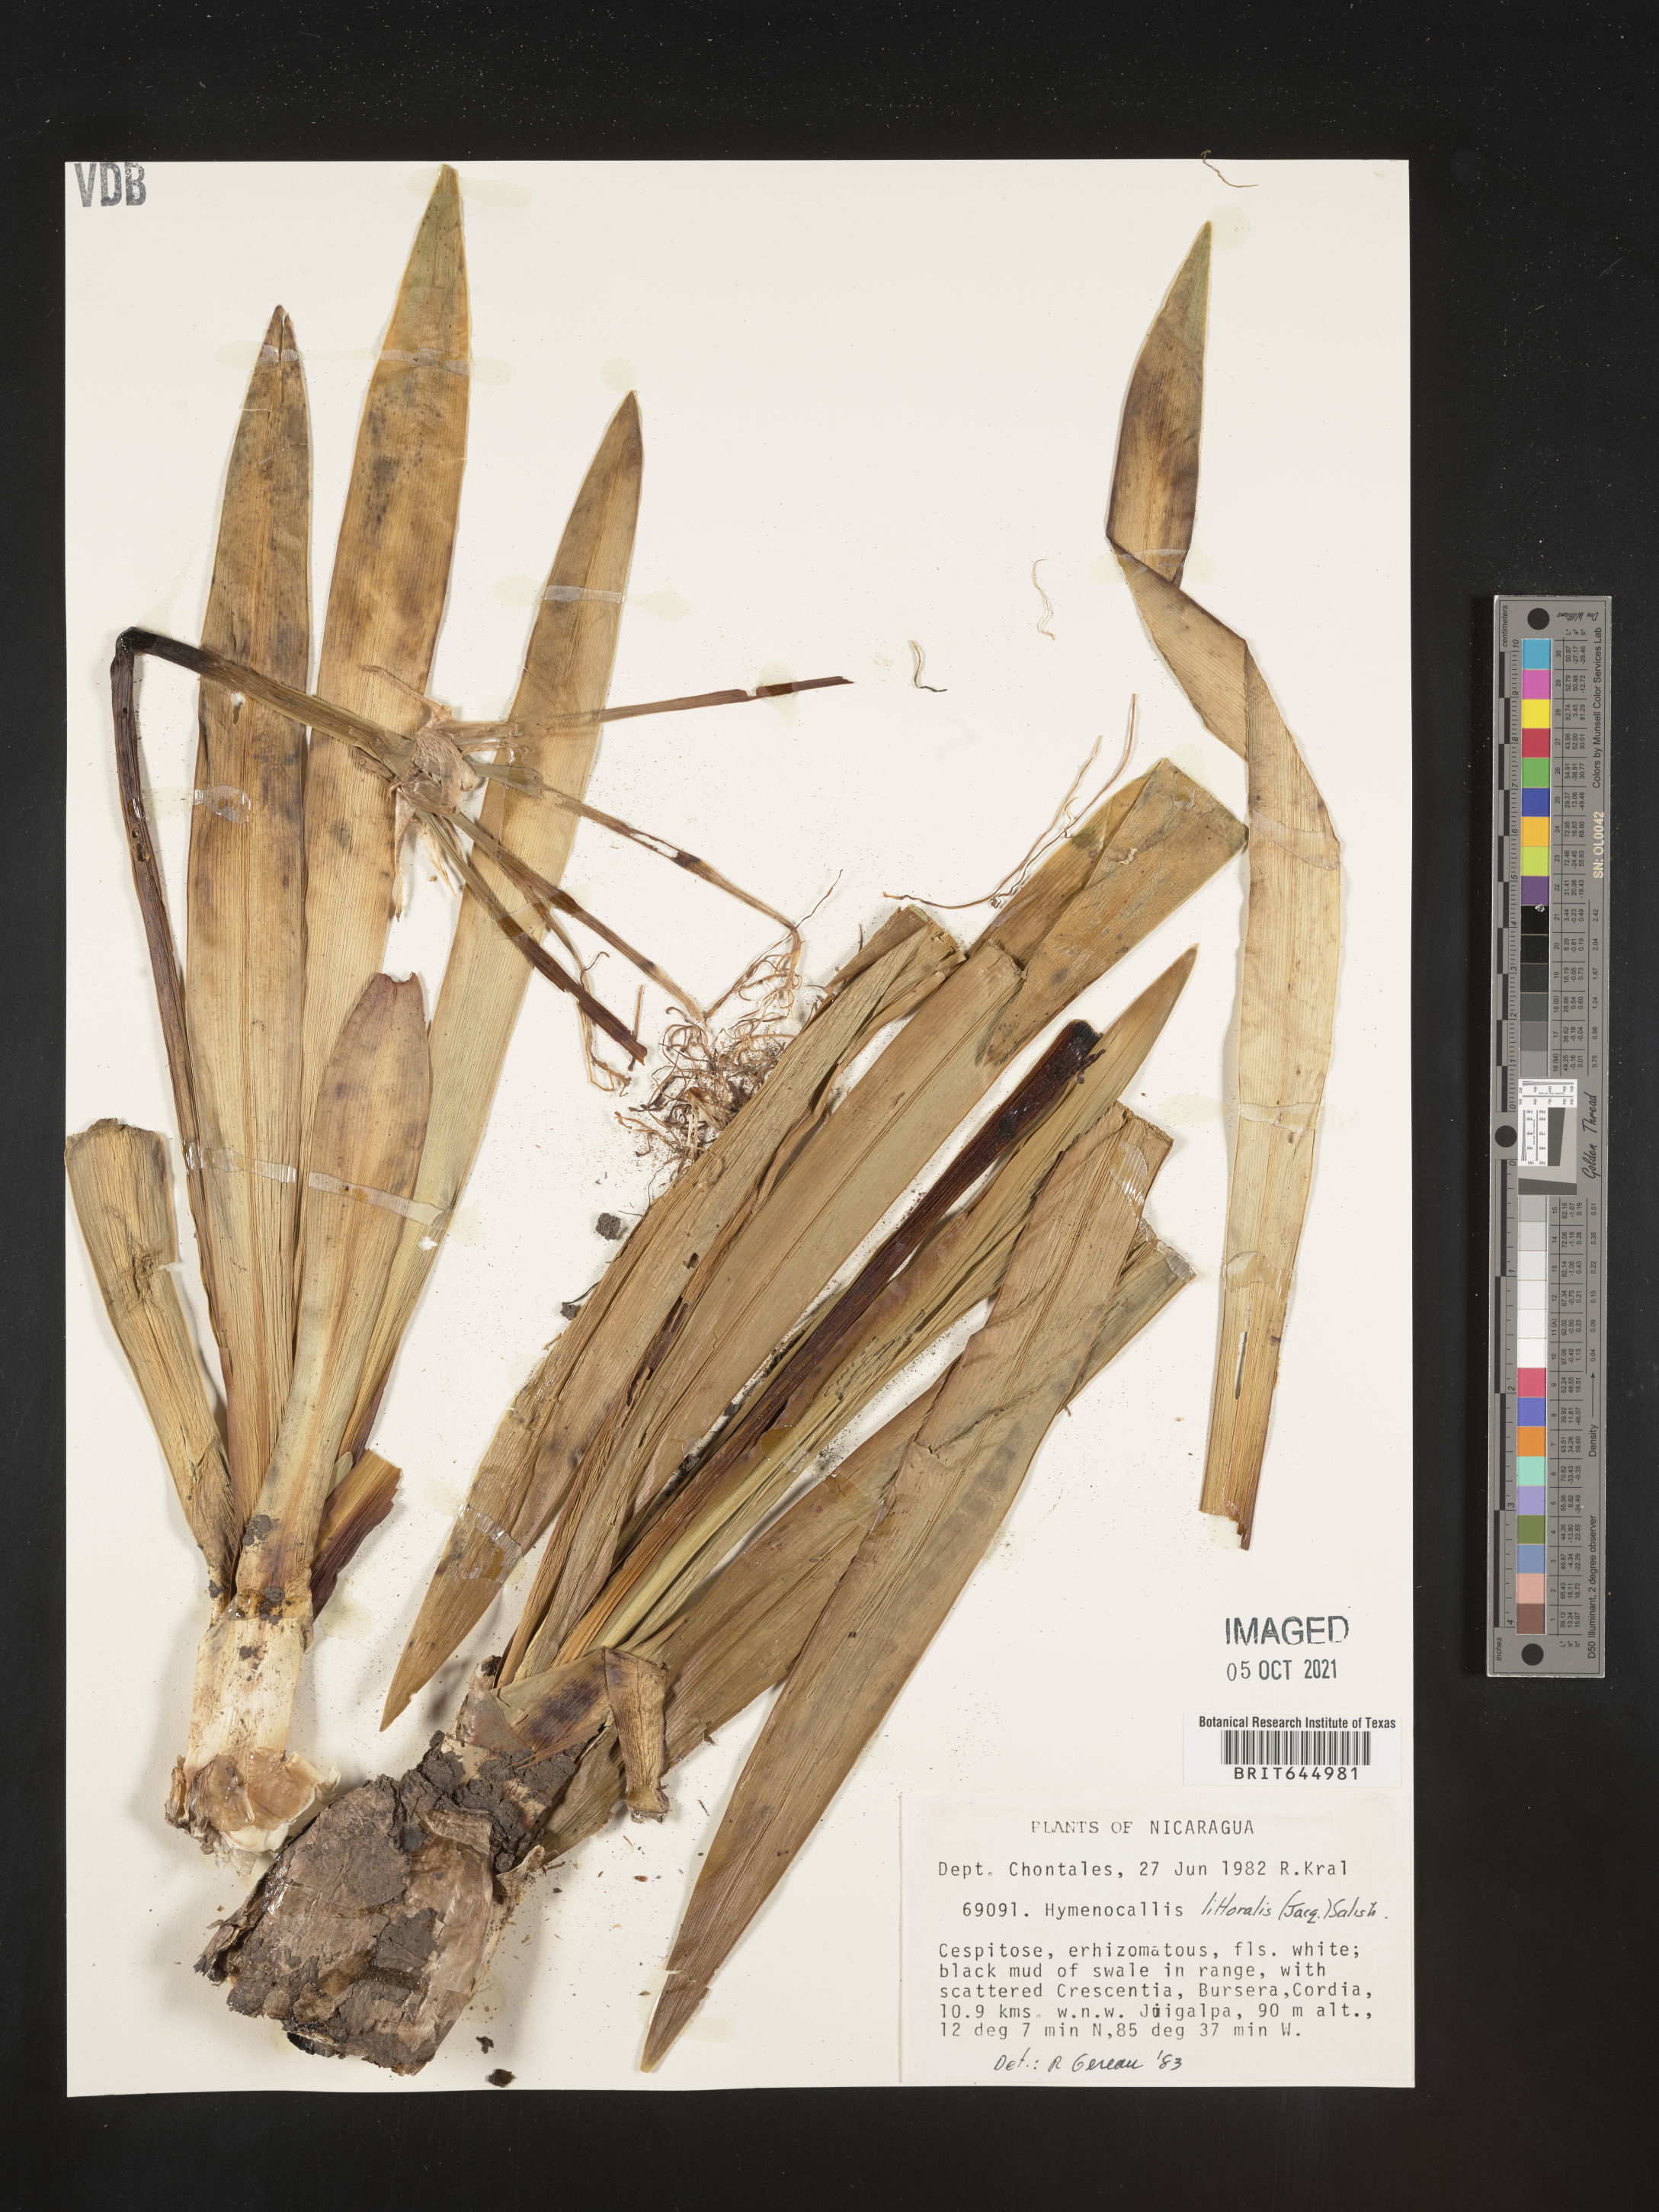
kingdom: Plantae
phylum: Tracheophyta
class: Liliopsida
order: Asparagales
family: Amaryllidaceae
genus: Hymenocallis
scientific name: Hymenocallis littoralis
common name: Beach spiderlily
